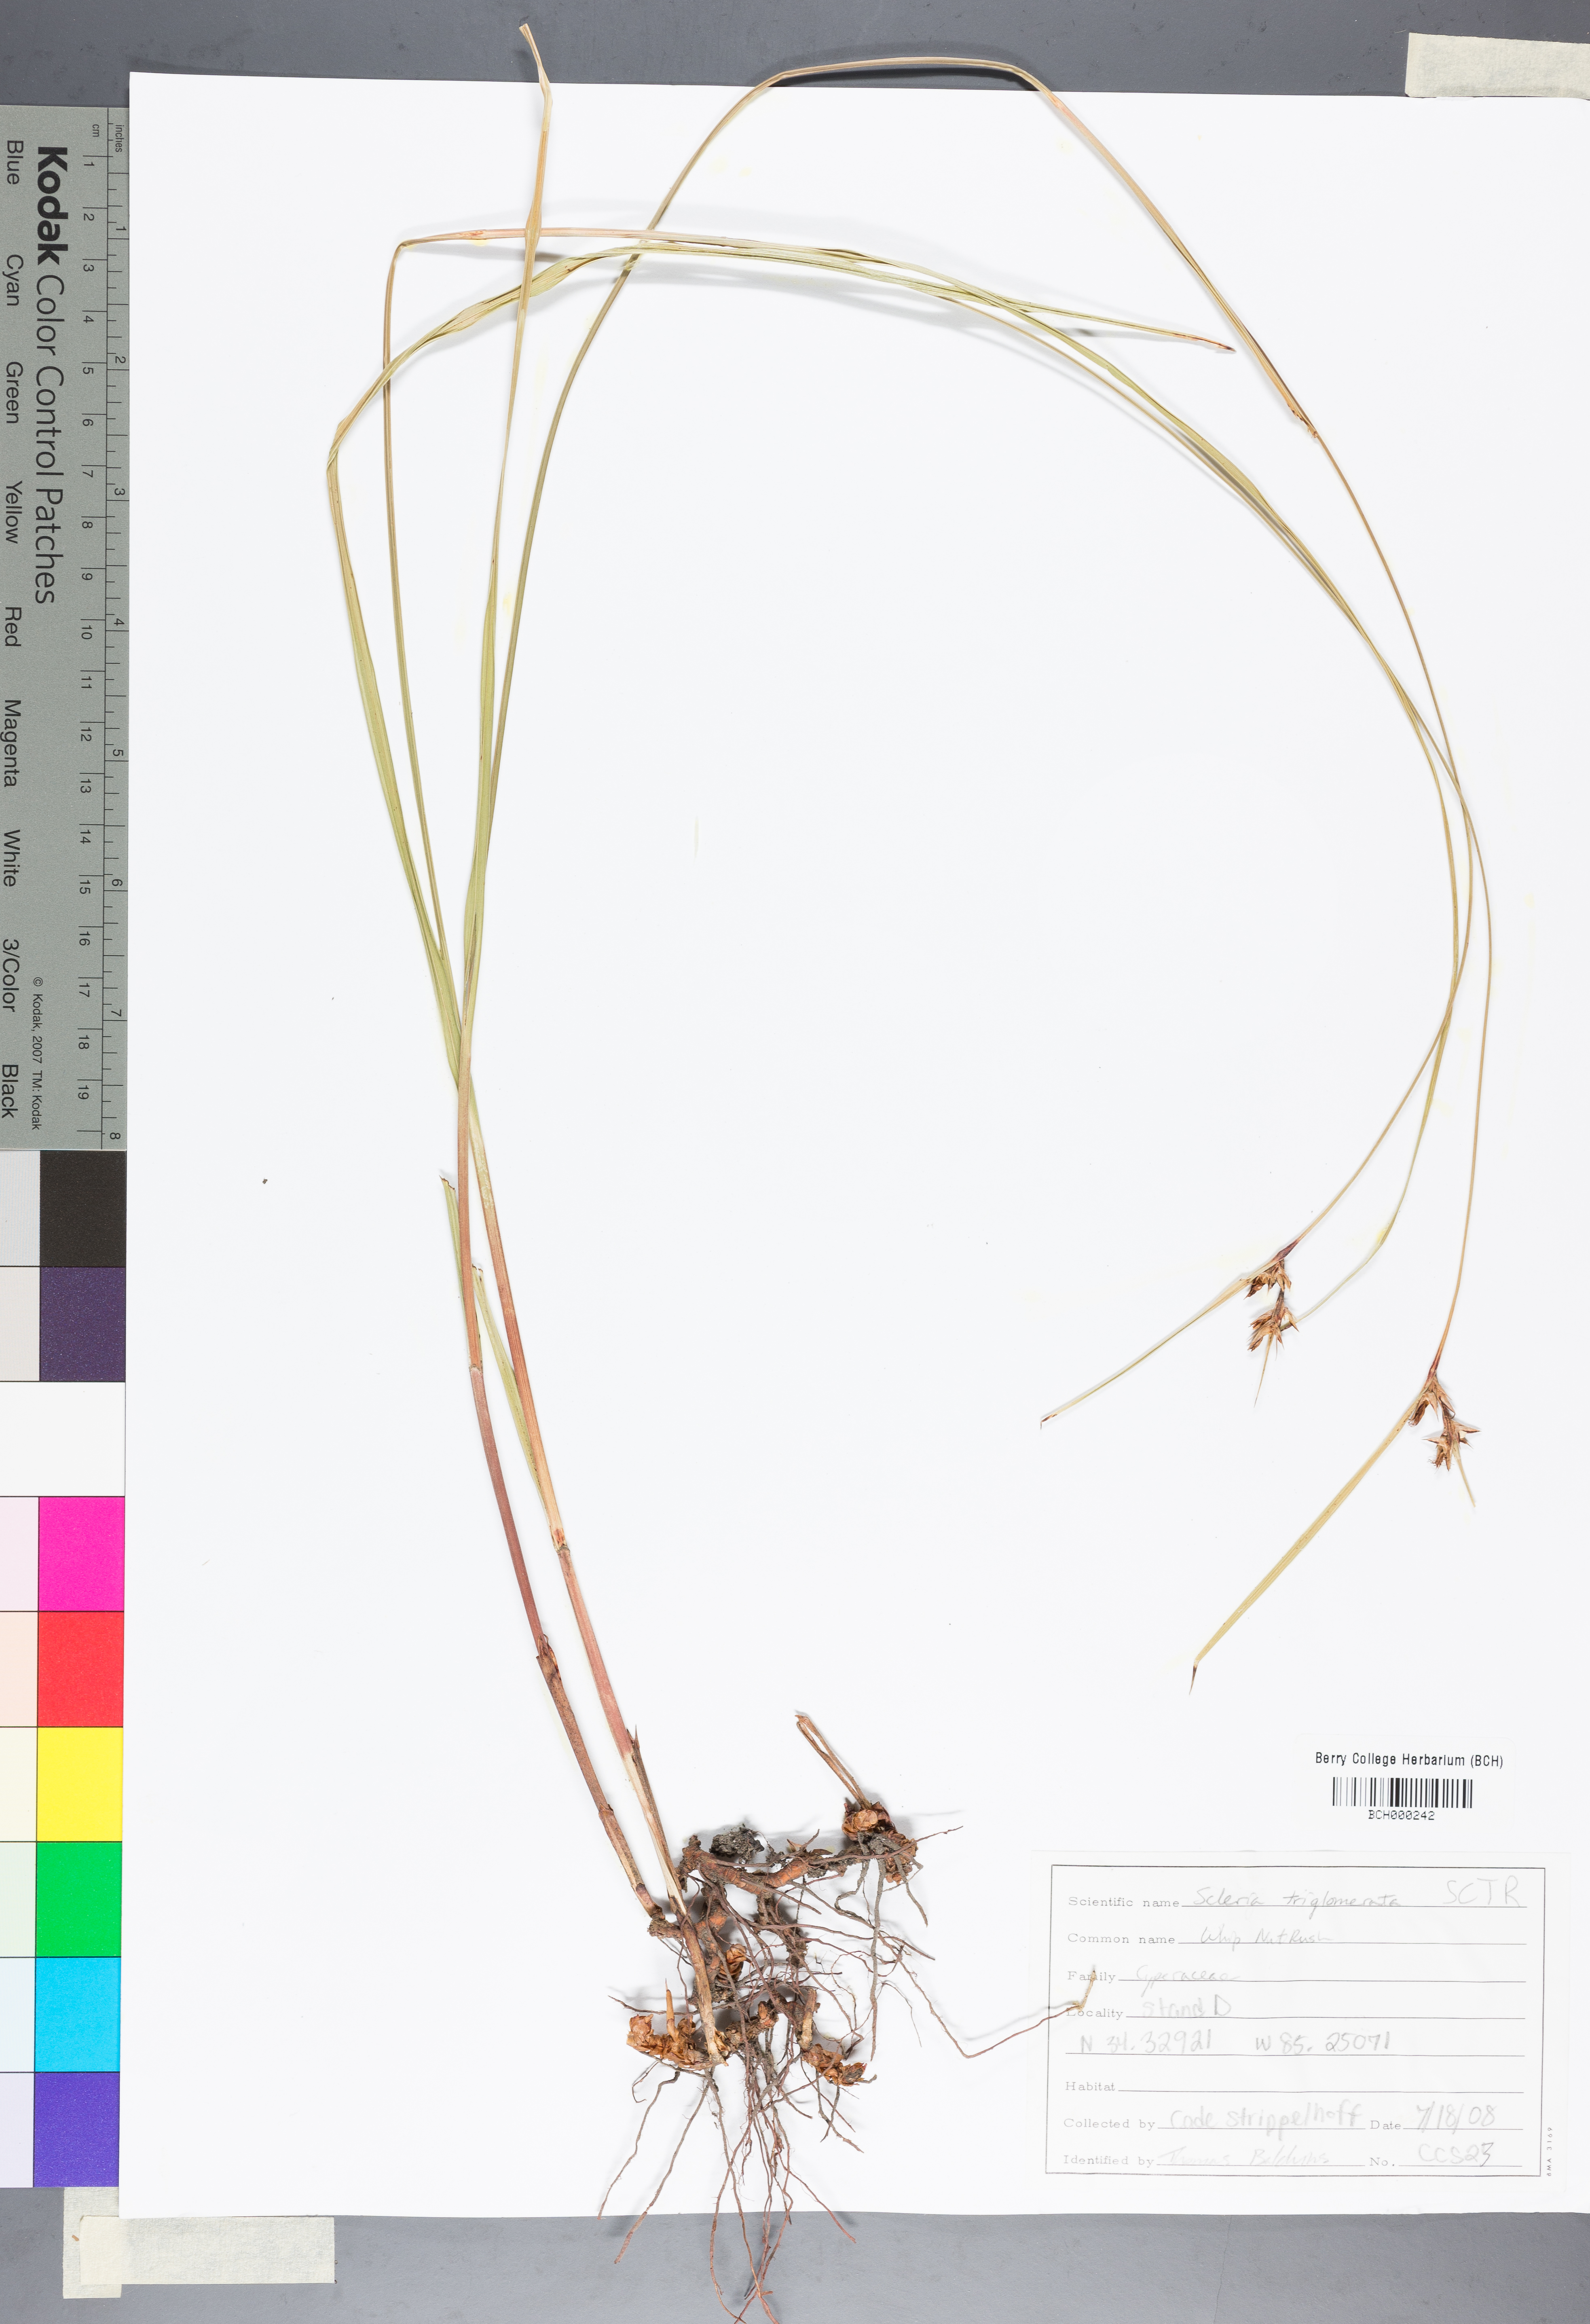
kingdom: Plantae
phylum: Tracheophyta
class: Liliopsida
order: Poales
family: Cyperaceae
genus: Scleria
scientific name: Scleria triglomerata
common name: Whip nutrush
